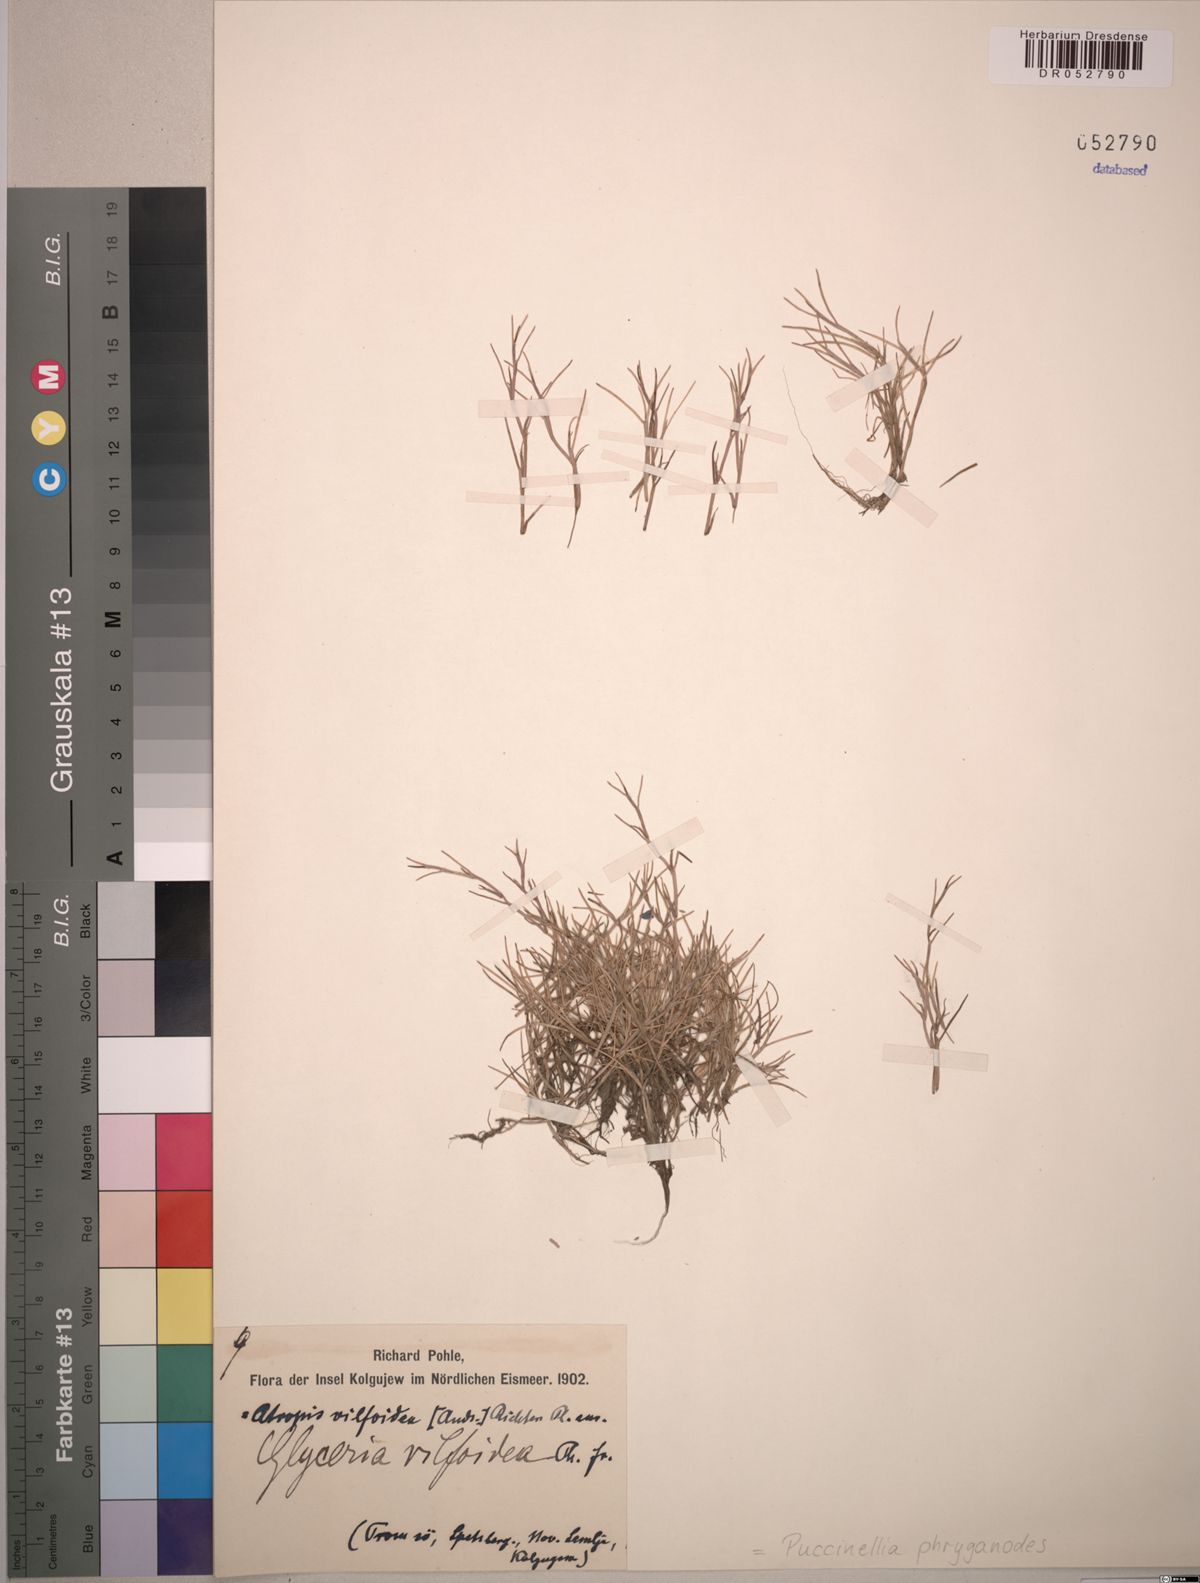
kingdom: Plantae
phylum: Tracheophyta
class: Liliopsida
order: Poales
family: Poaceae
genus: Puccinellia
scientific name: Puccinellia phryganodes
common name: Creeping alkaligrass
